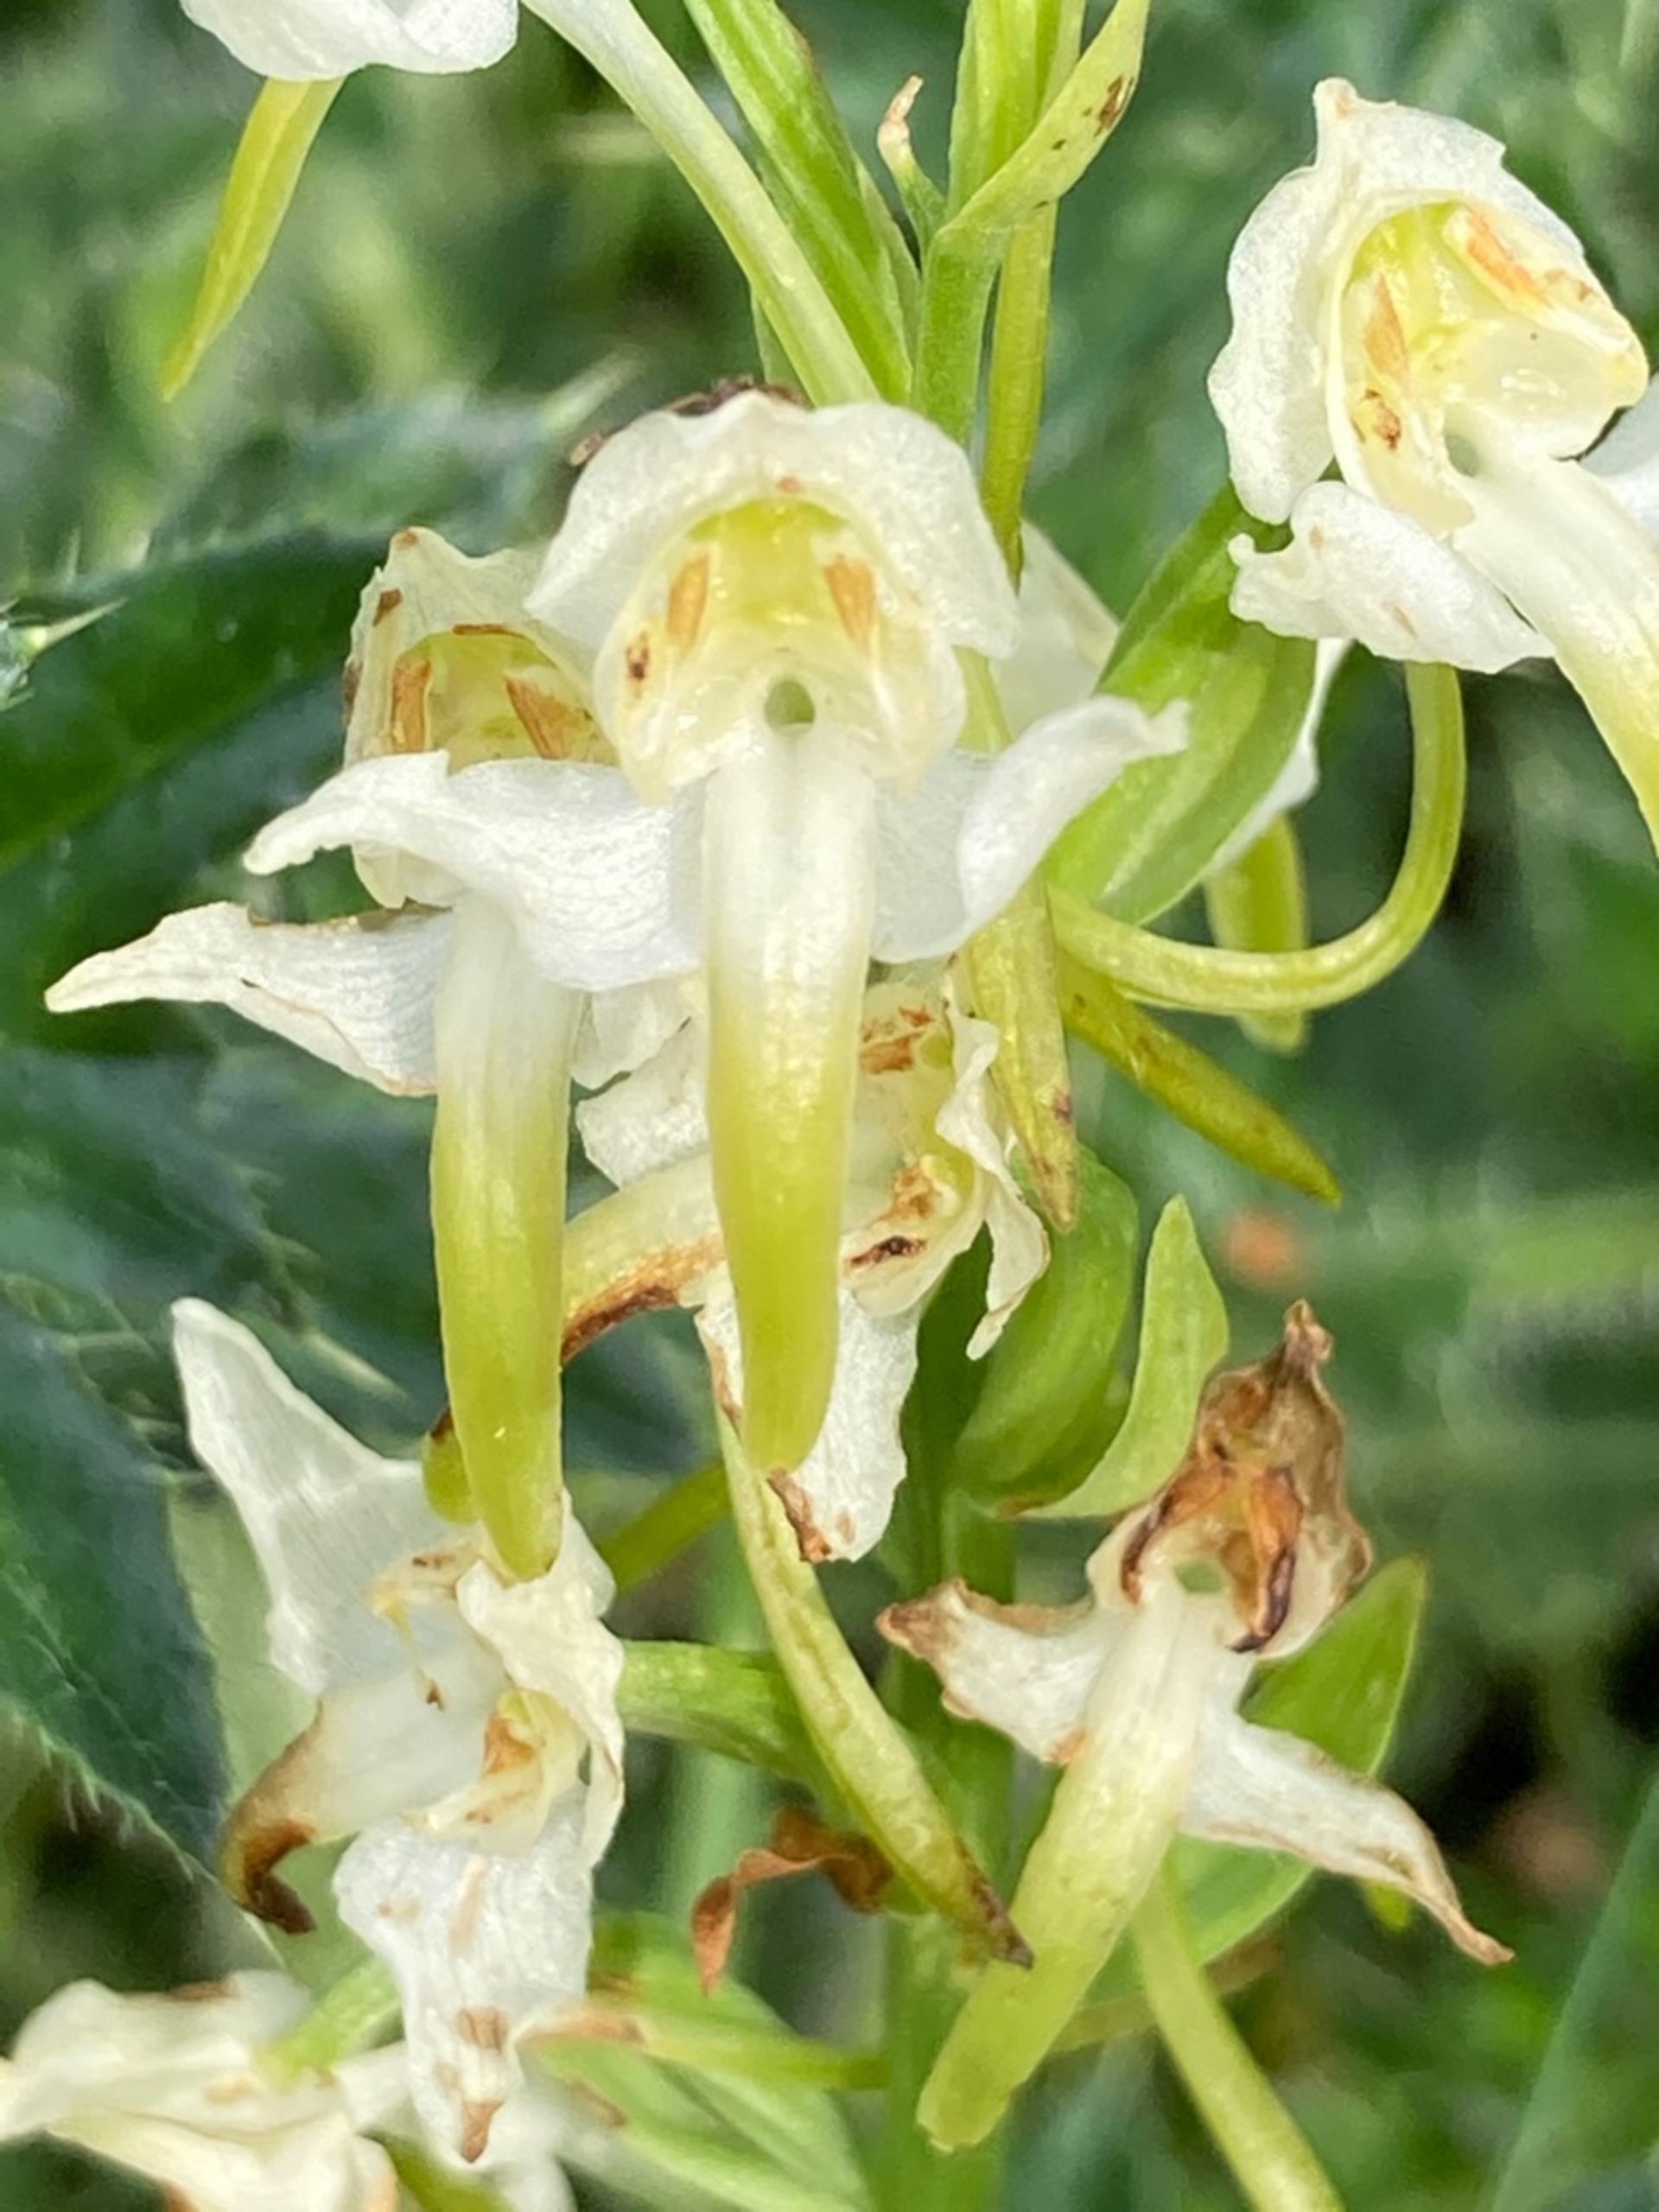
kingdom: Plantae
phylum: Tracheophyta
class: Liliopsida
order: Asparagales
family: Orchidaceae
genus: Platanthera
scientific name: Platanthera chlorantha
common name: Skov-gøgelilje
